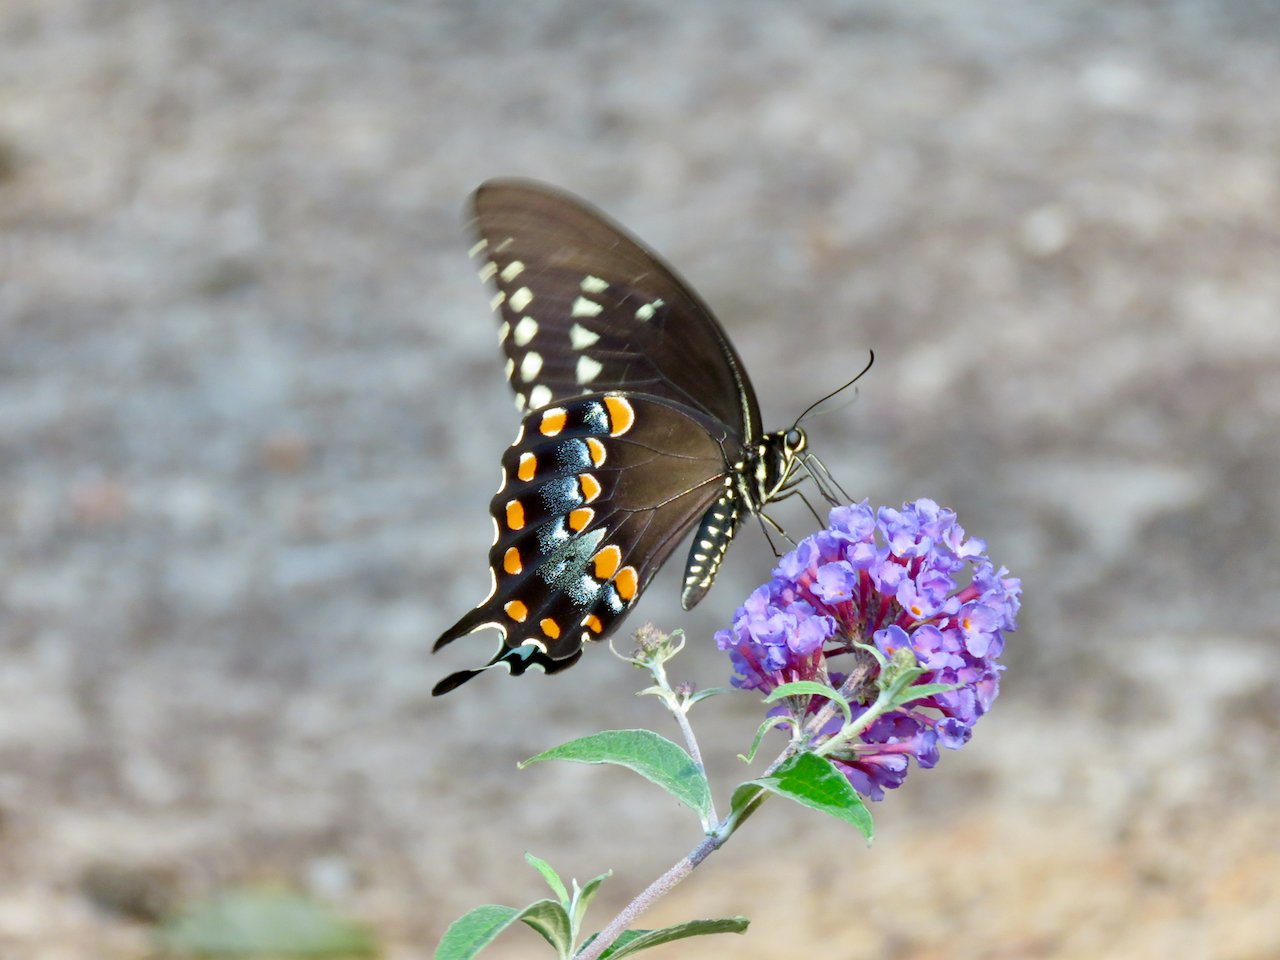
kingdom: Animalia
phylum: Arthropoda
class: Insecta
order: Lepidoptera
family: Papilionidae
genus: Pterourus
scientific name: Pterourus troilus
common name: Spicebush Swallowtail
